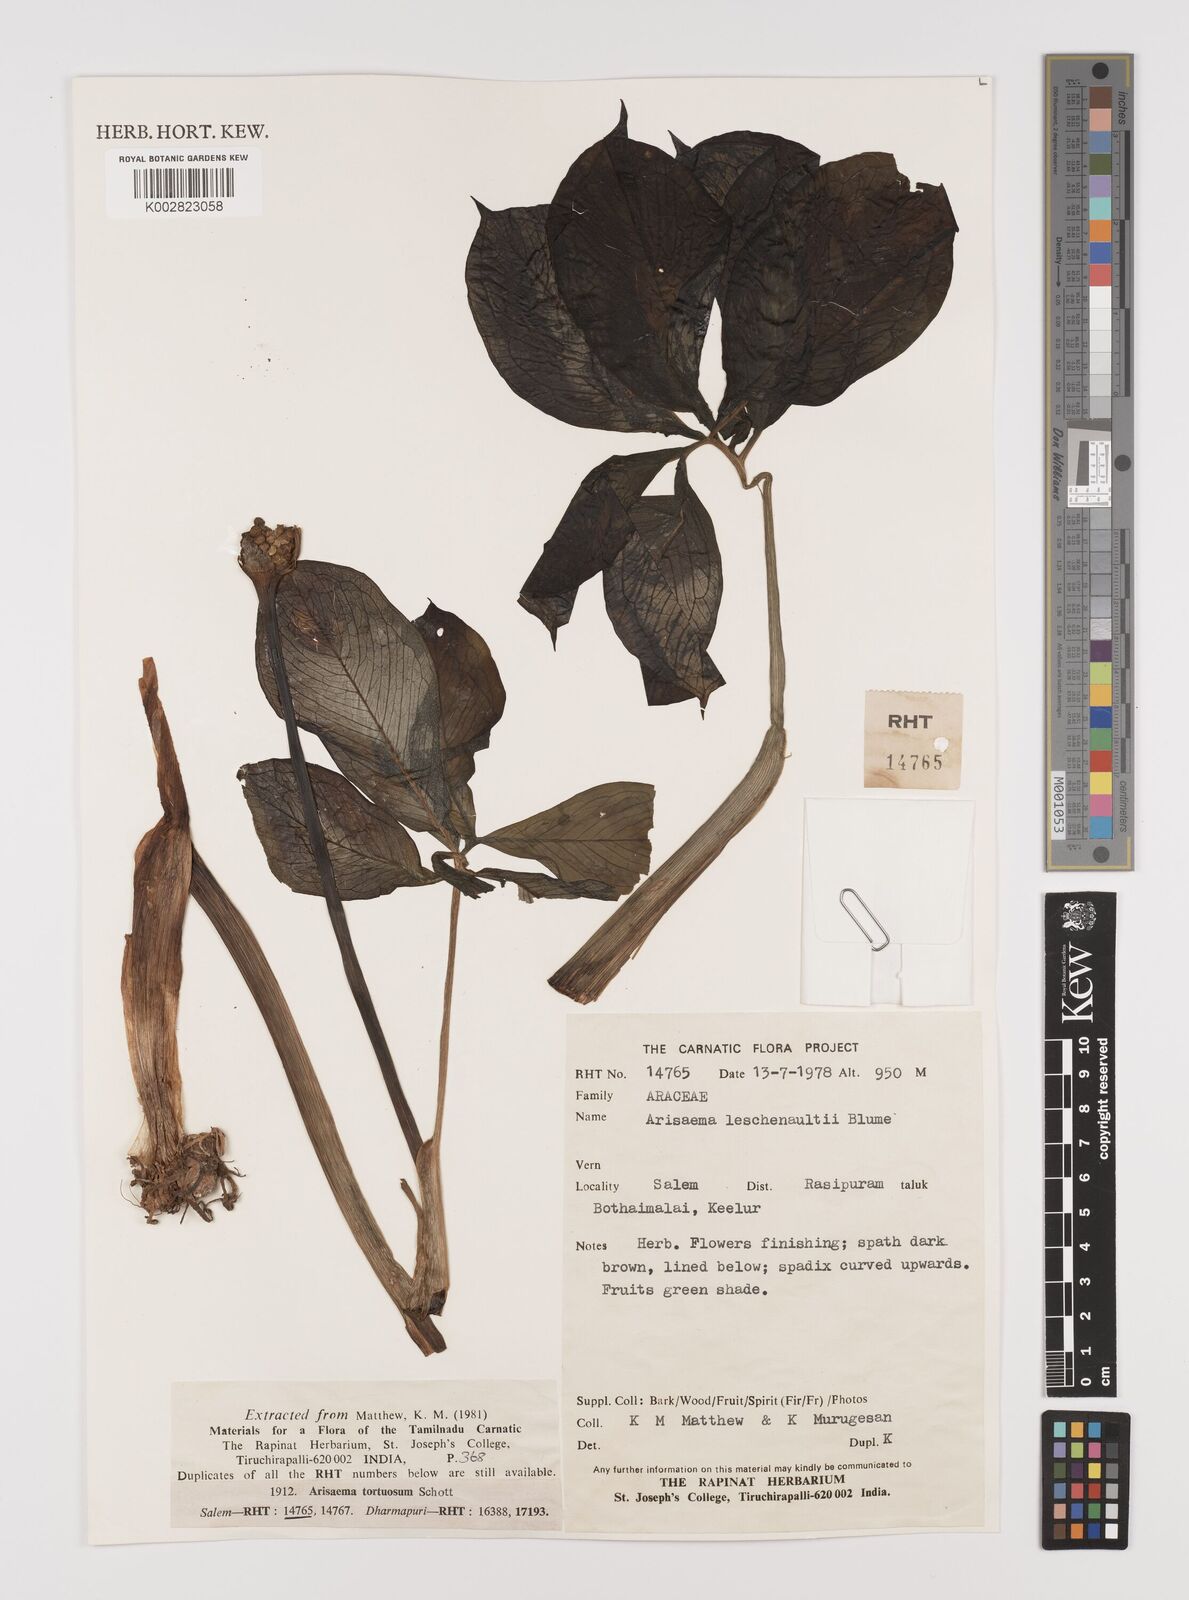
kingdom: Plantae
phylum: Tracheophyta
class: Liliopsida
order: Alismatales
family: Araceae
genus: Arisaema
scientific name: Arisaema leschenaultii
